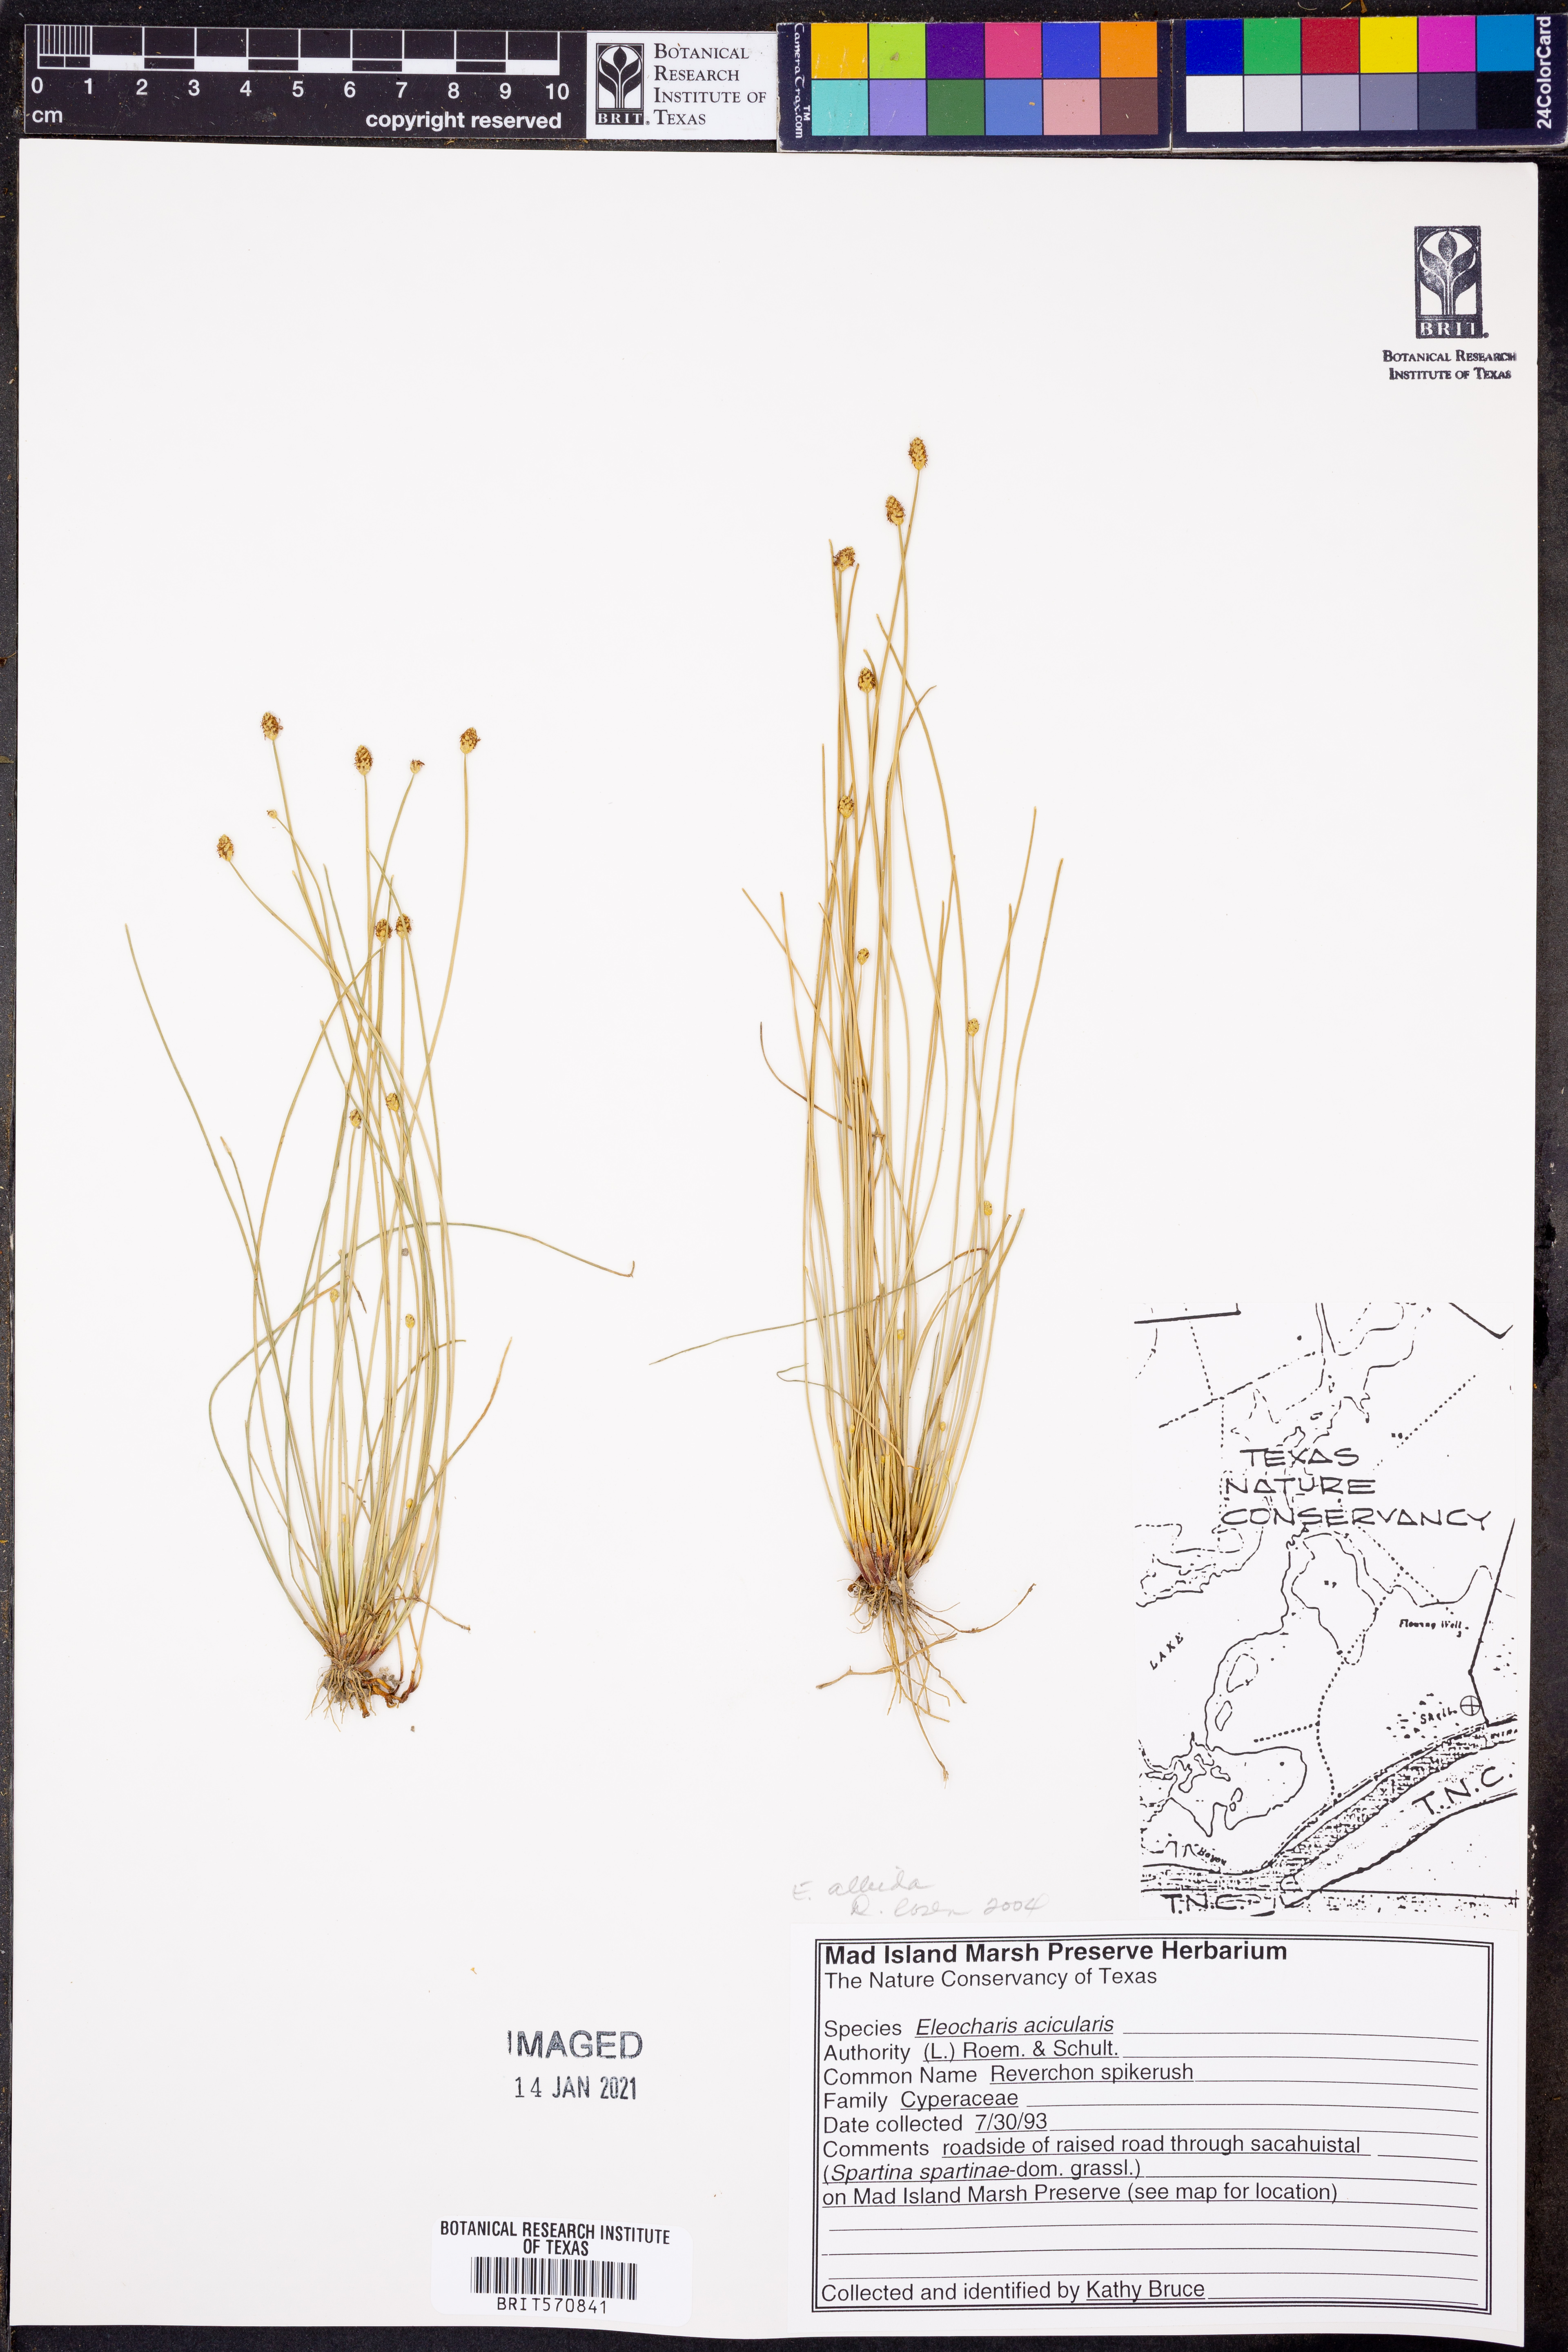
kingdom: Plantae
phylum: Tracheophyta
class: Liliopsida
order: Poales
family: Cyperaceae
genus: Eleocharis
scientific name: Eleocharis albida
